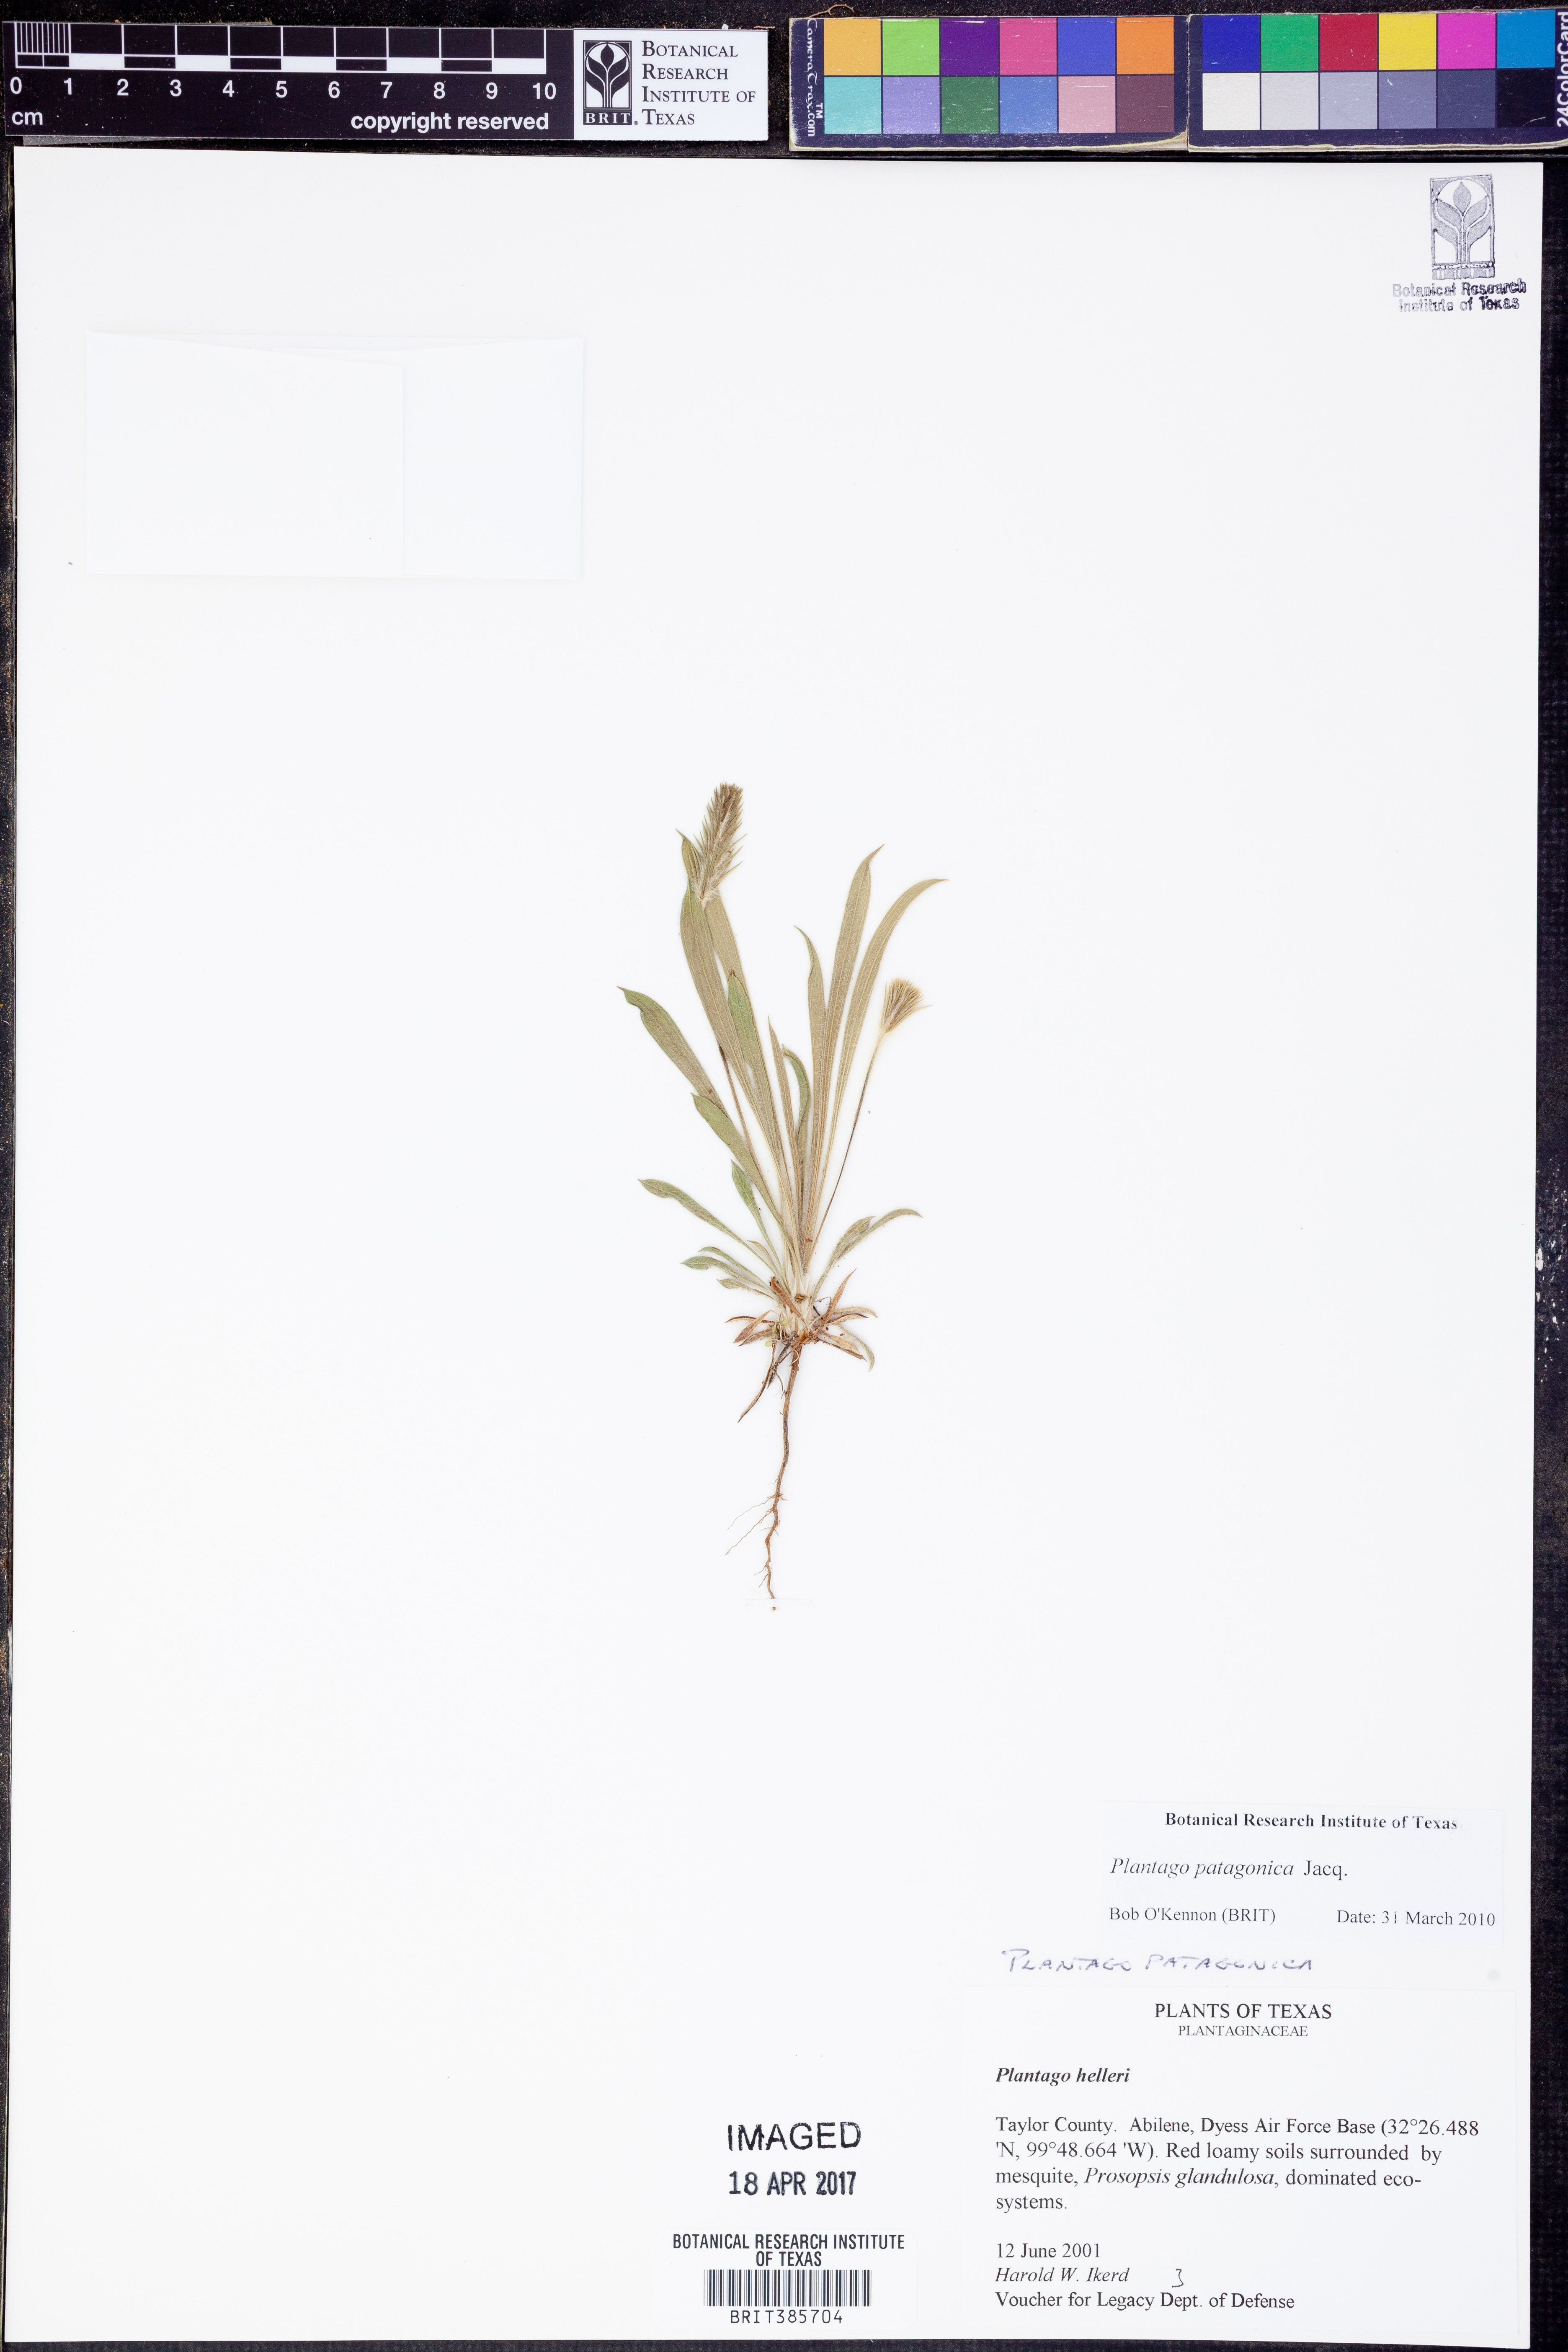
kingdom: Plantae
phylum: Tracheophyta
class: Magnoliopsida
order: Lamiales
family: Plantaginaceae
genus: Plantago
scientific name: Plantago patagonica
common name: Patagonia indian-wheat
